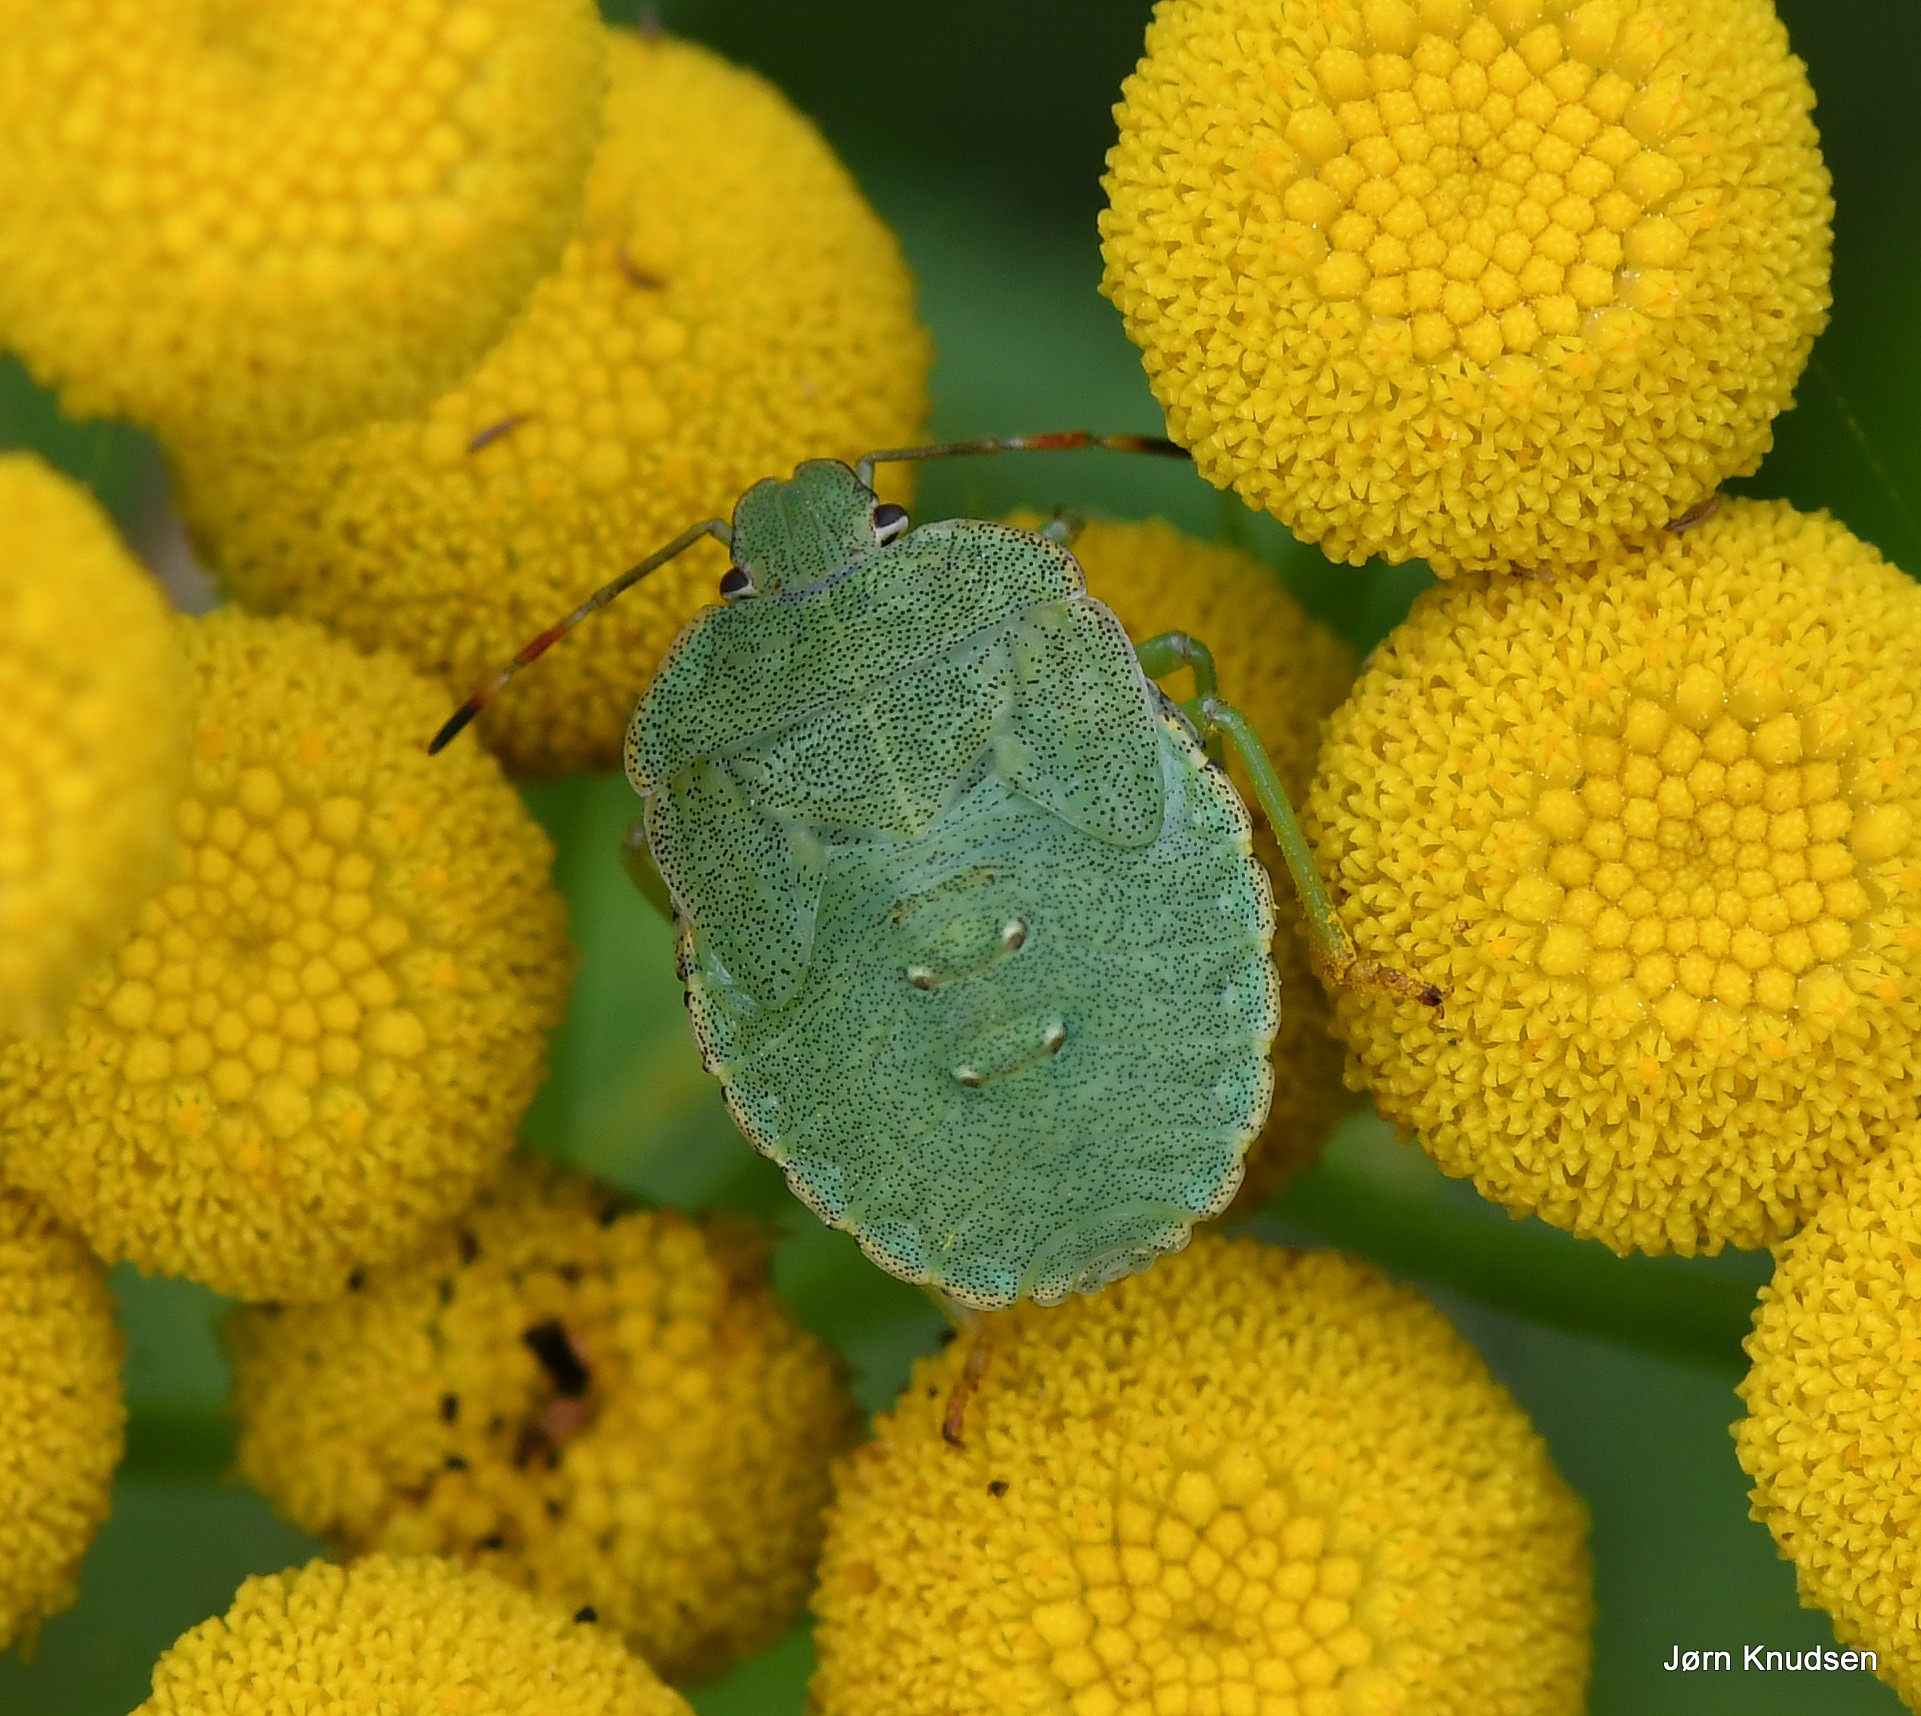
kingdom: Animalia
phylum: Arthropoda
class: Insecta
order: Hemiptera
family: Pentatomidae
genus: Palomena
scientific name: Palomena prasina
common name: Grøn bredtæge
